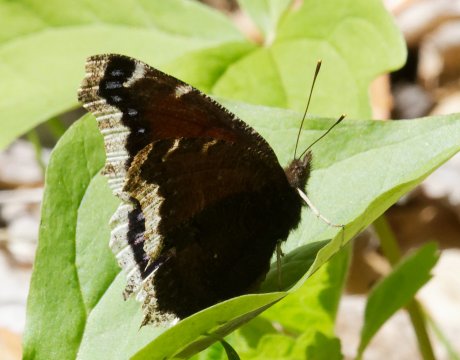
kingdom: Animalia
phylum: Arthropoda
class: Insecta
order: Lepidoptera
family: Nymphalidae
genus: Nymphalis
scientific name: Nymphalis antiopa
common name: Mourning Cloak
